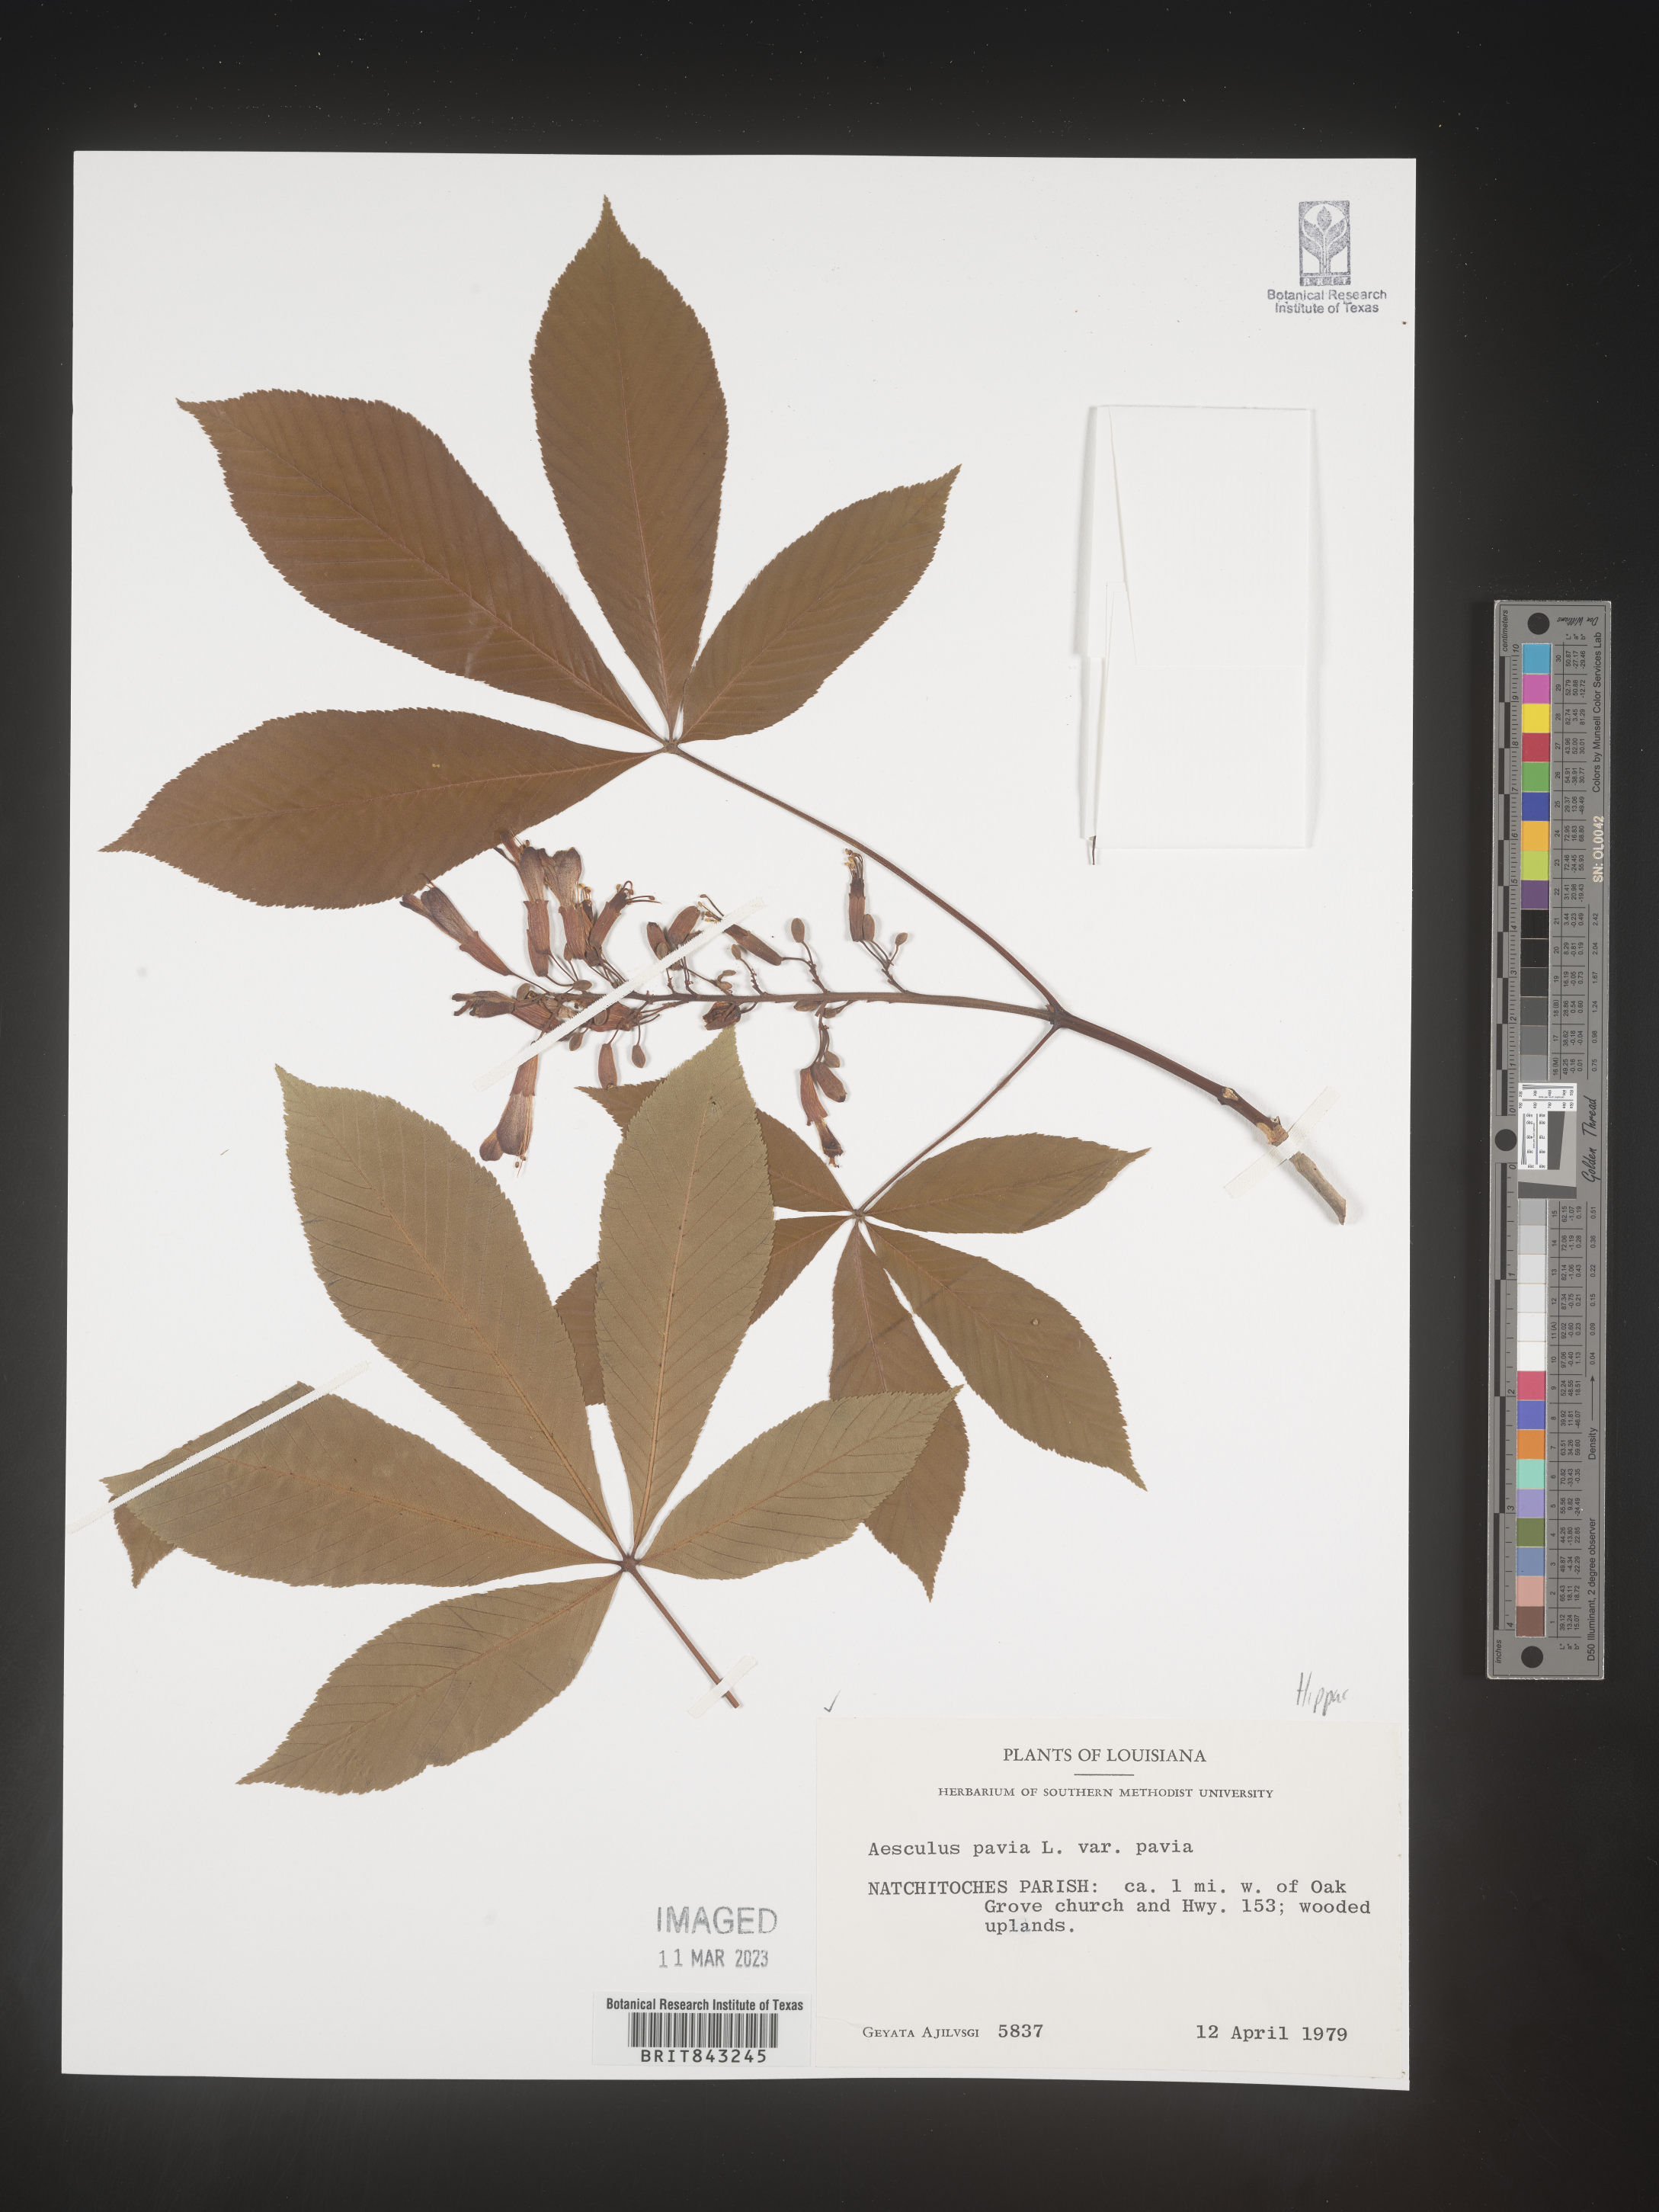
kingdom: Plantae
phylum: Tracheophyta
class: Magnoliopsida
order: Sapindales
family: Sapindaceae
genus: Aesculus
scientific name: Aesculus pavia
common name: Red buckeye
